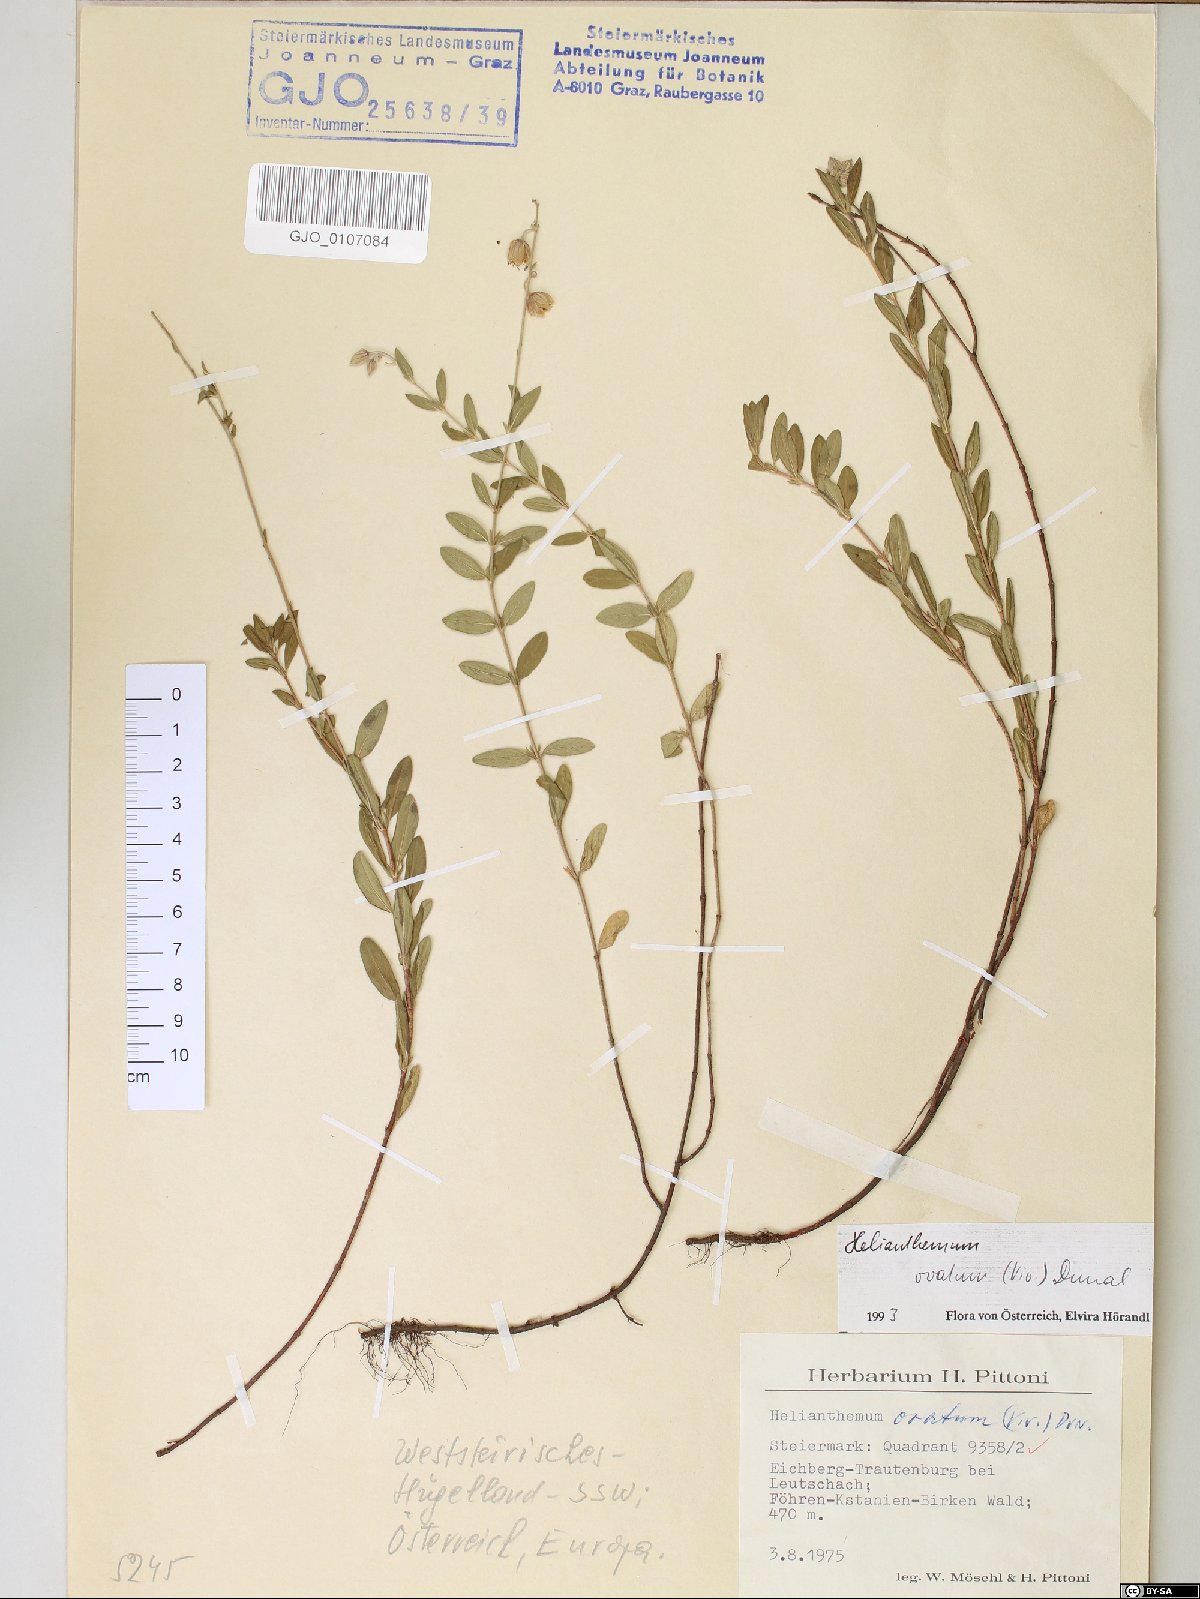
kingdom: Plantae
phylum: Tracheophyta
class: Magnoliopsida
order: Malvales
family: Cistaceae
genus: Helianthemum
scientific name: Helianthemum nummularium
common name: Common rock-rose
